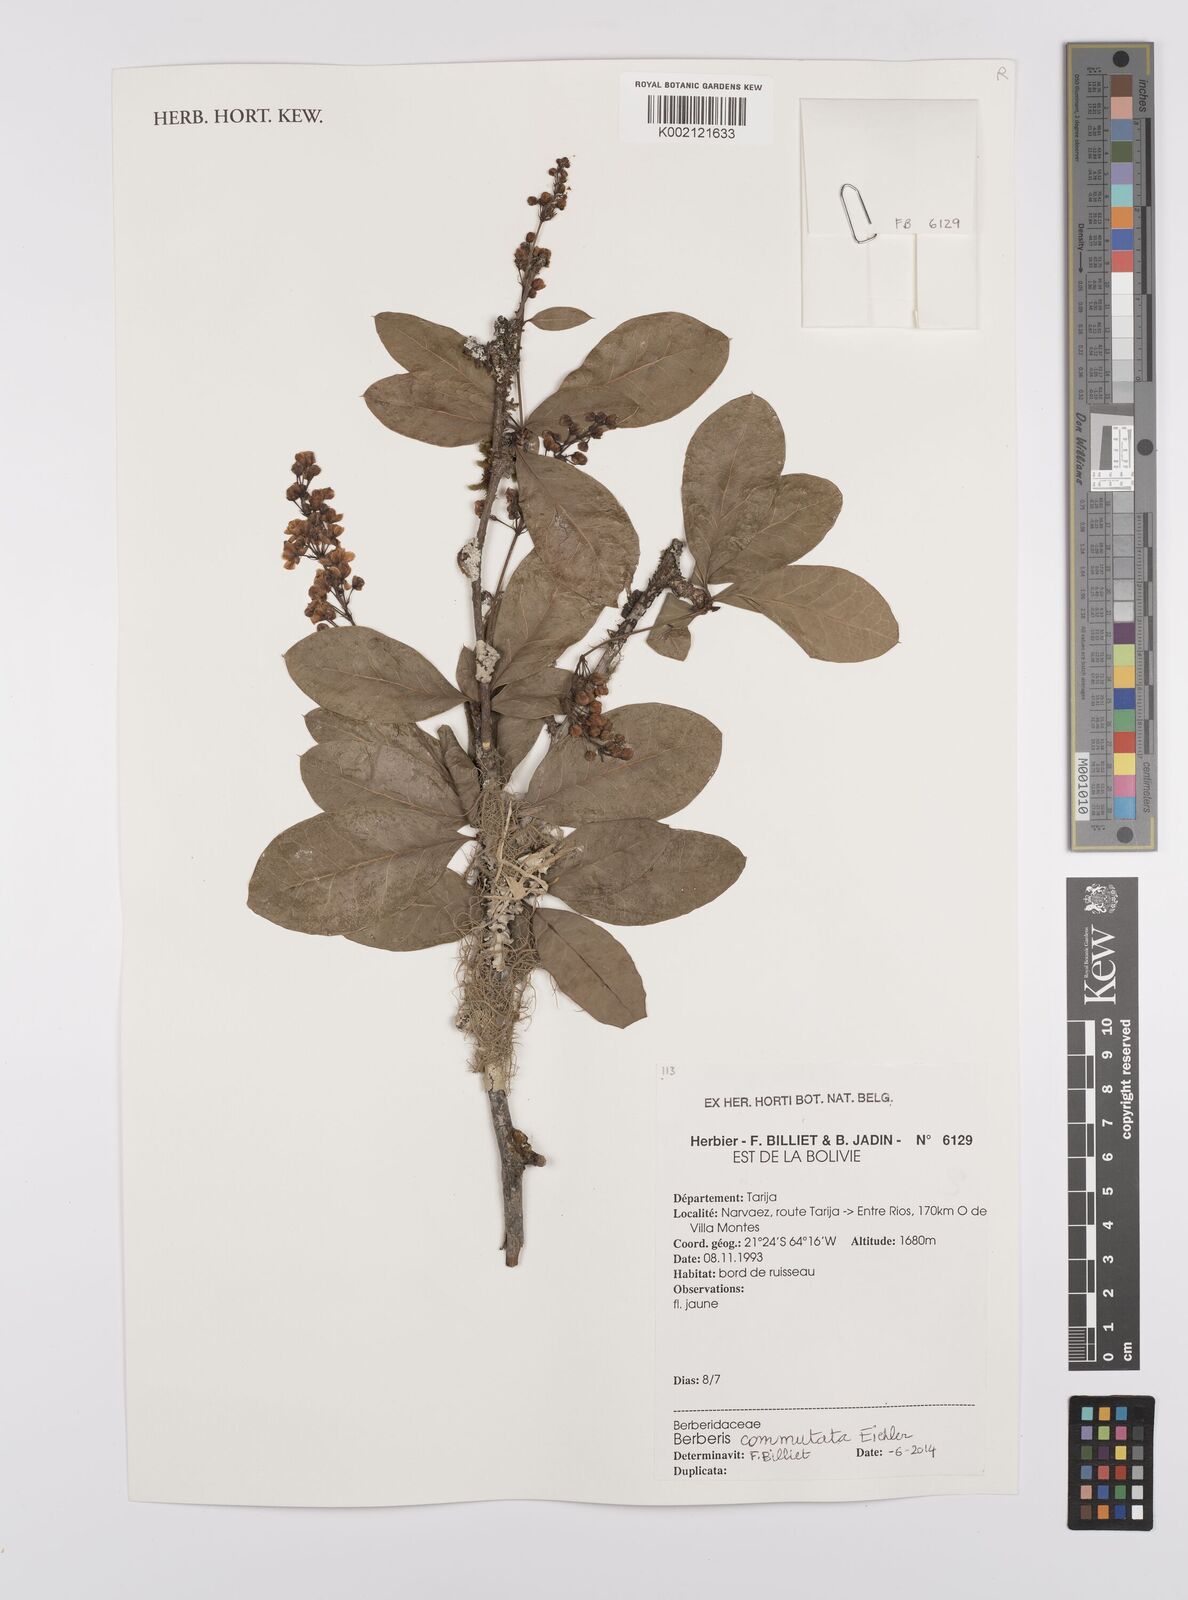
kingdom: Plantae
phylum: Tracheophyta
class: Magnoliopsida
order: Ranunculales
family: Berberidaceae
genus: Berberis
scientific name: Berberis commutata
